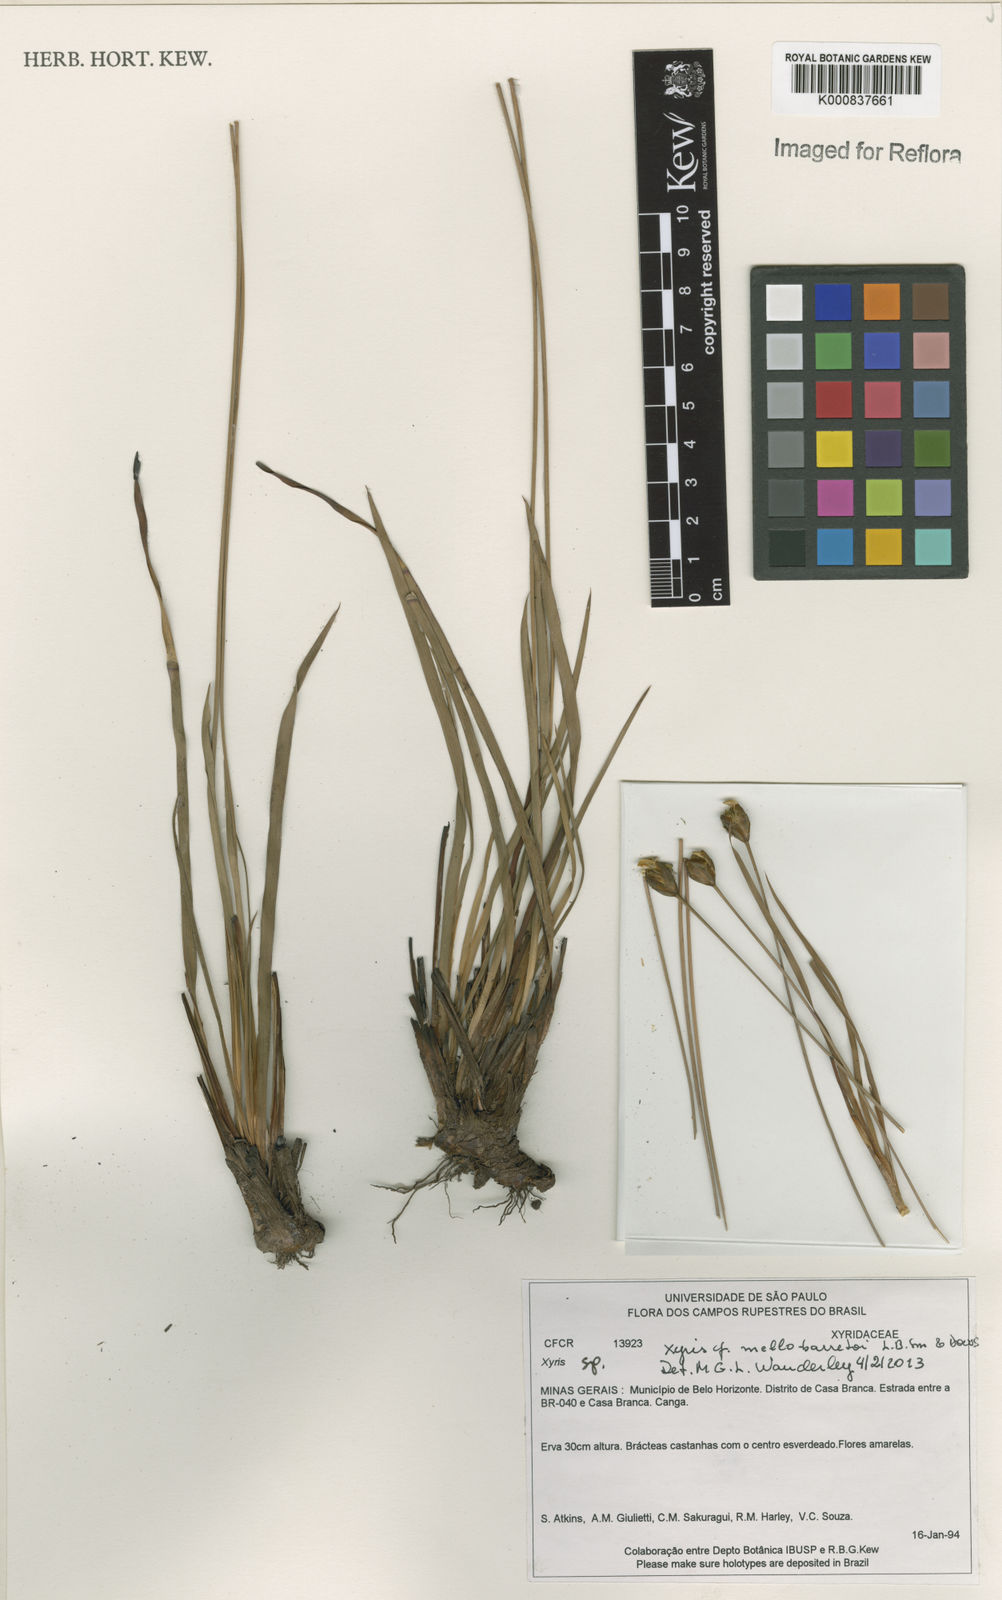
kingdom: Plantae
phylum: Tracheophyta
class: Liliopsida
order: Poales
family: Xyridaceae
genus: Xyris
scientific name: Xyris mello-barretoi
